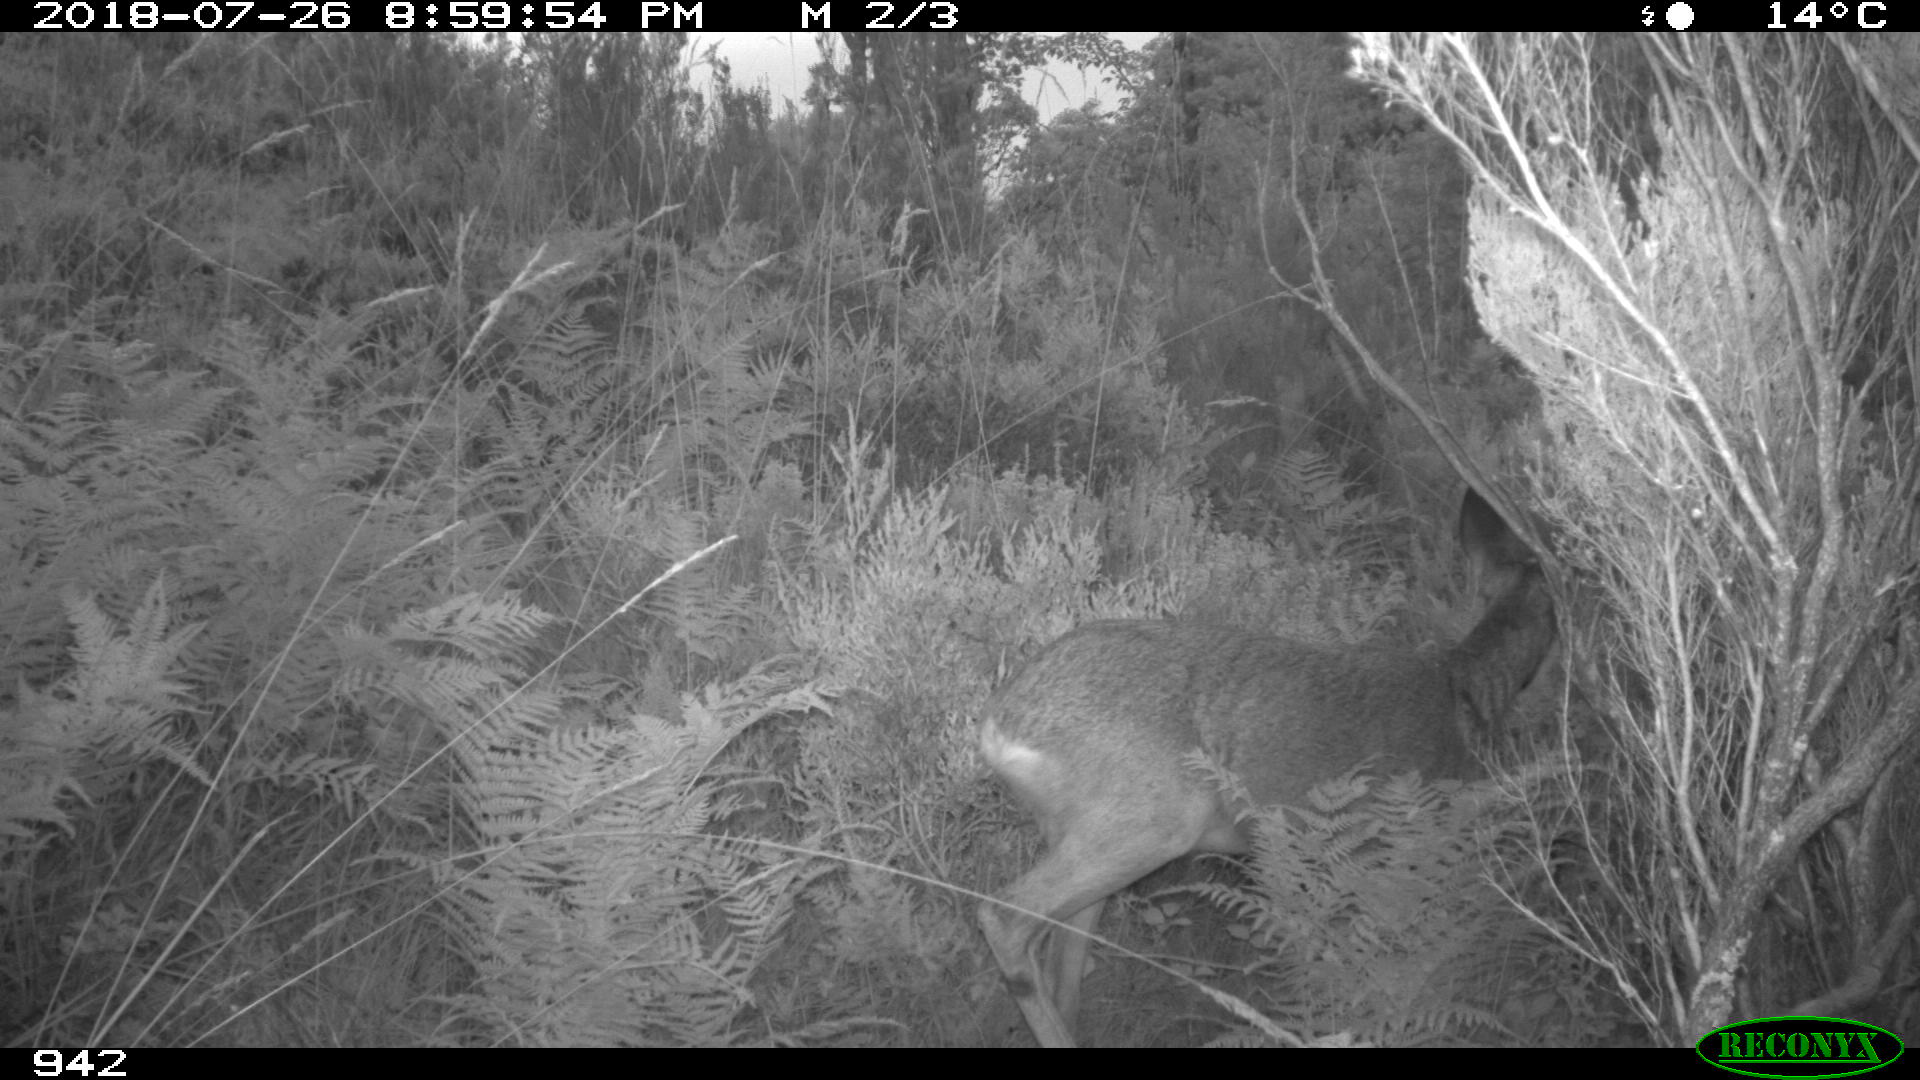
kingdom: Animalia
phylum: Chordata
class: Mammalia
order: Artiodactyla
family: Cervidae
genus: Capreolus
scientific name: Capreolus capreolus
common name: Western roe deer
